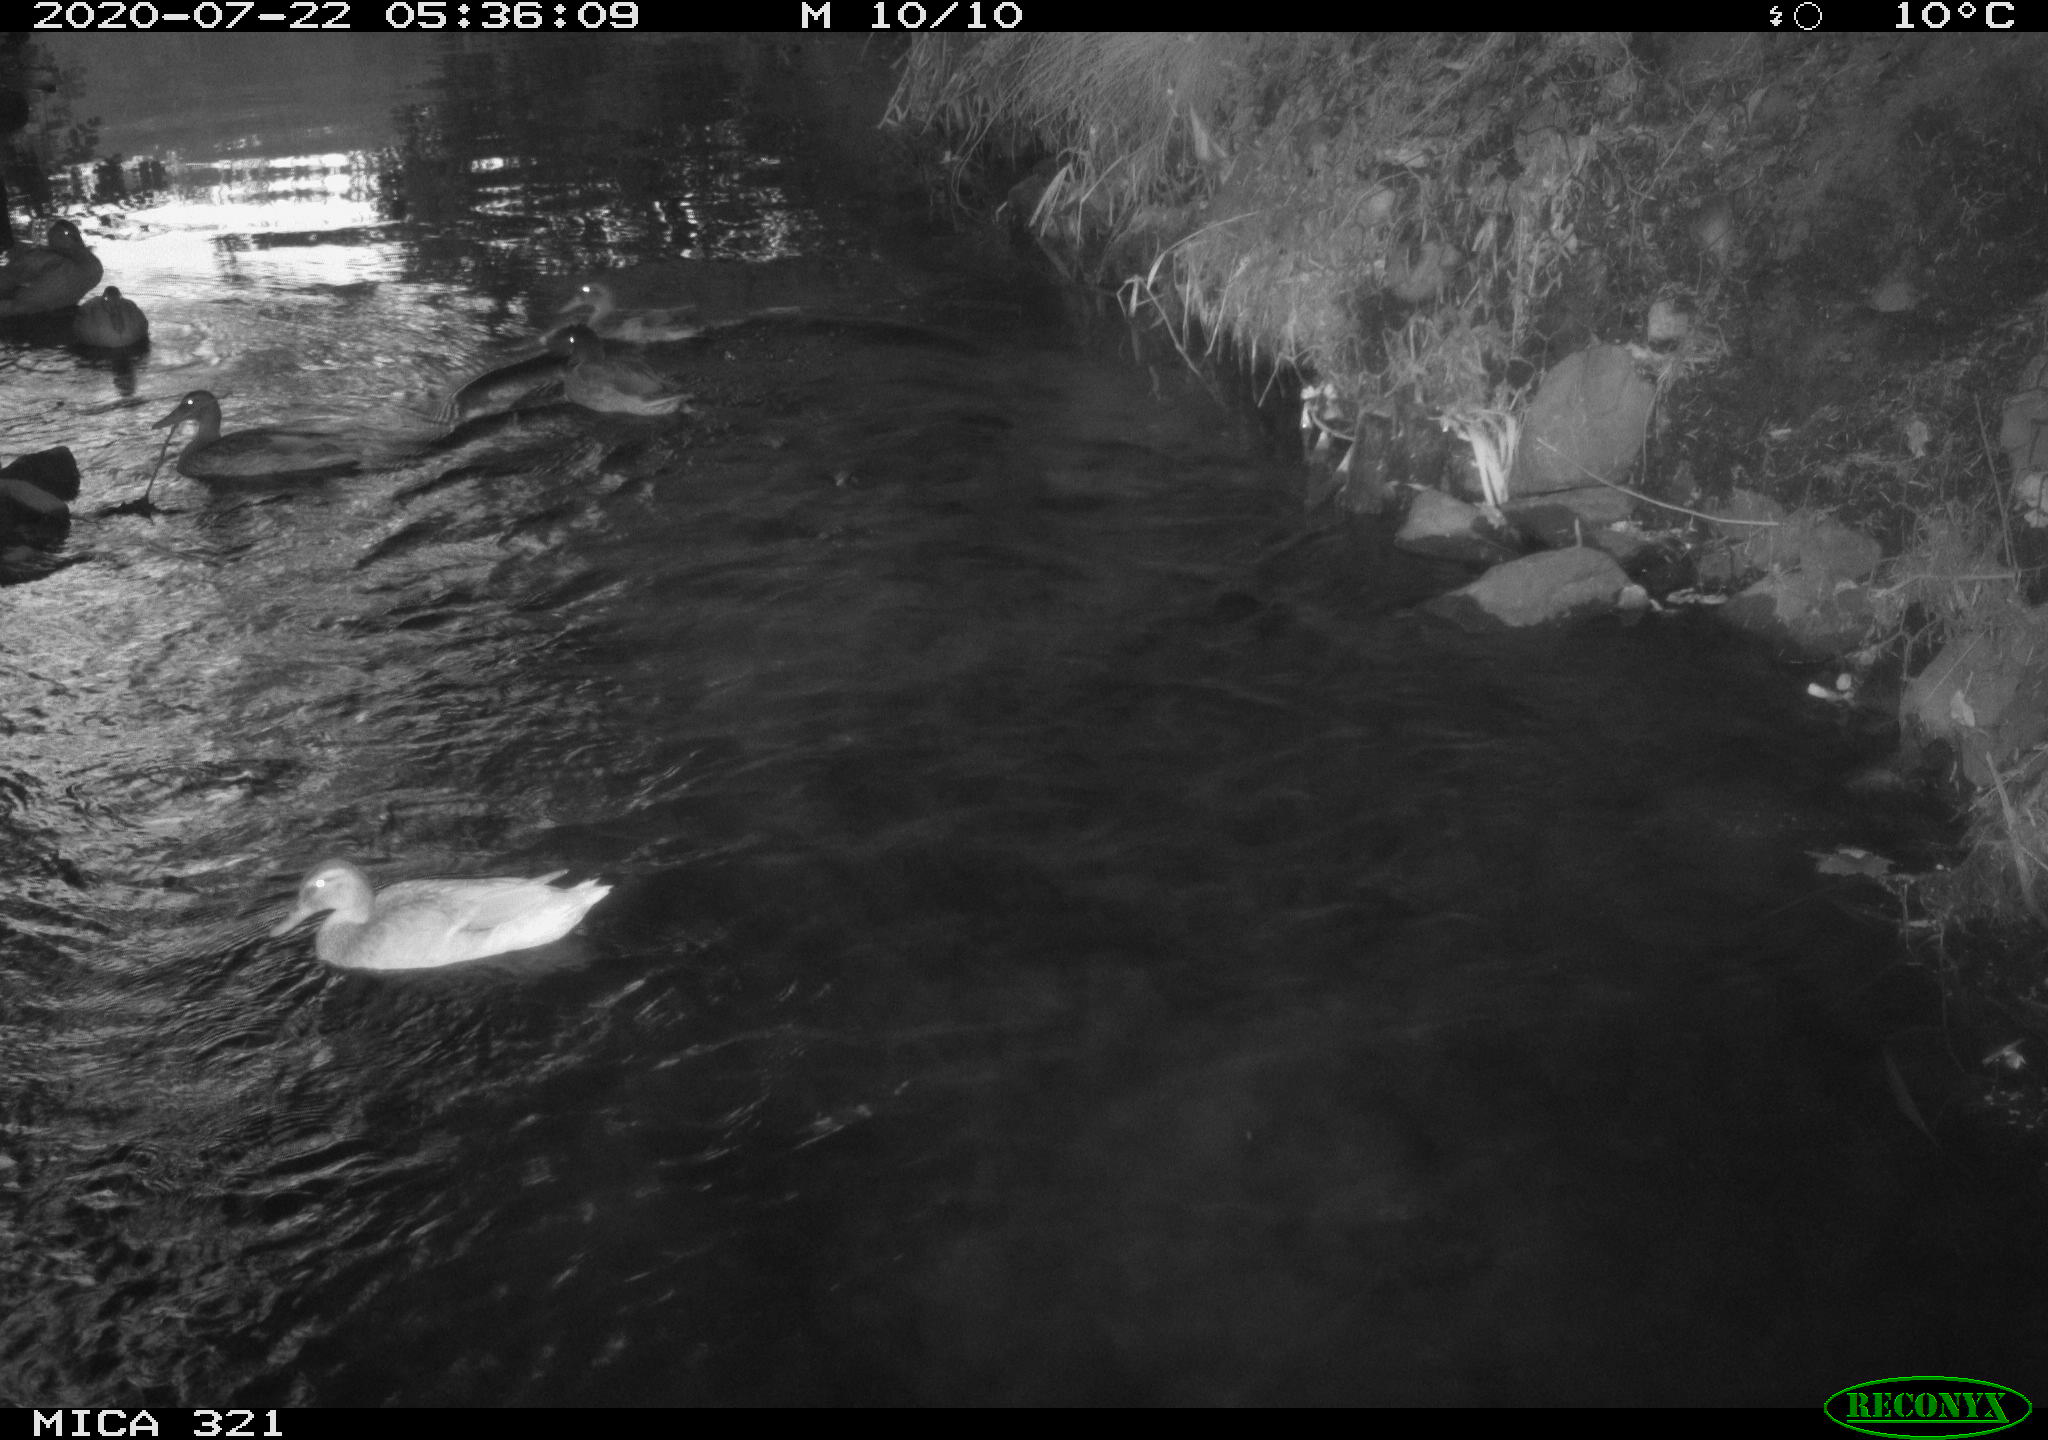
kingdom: Animalia
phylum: Chordata
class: Aves
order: Anseriformes
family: Anatidae
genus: Anas
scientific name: Anas platyrhynchos
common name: Mallard
